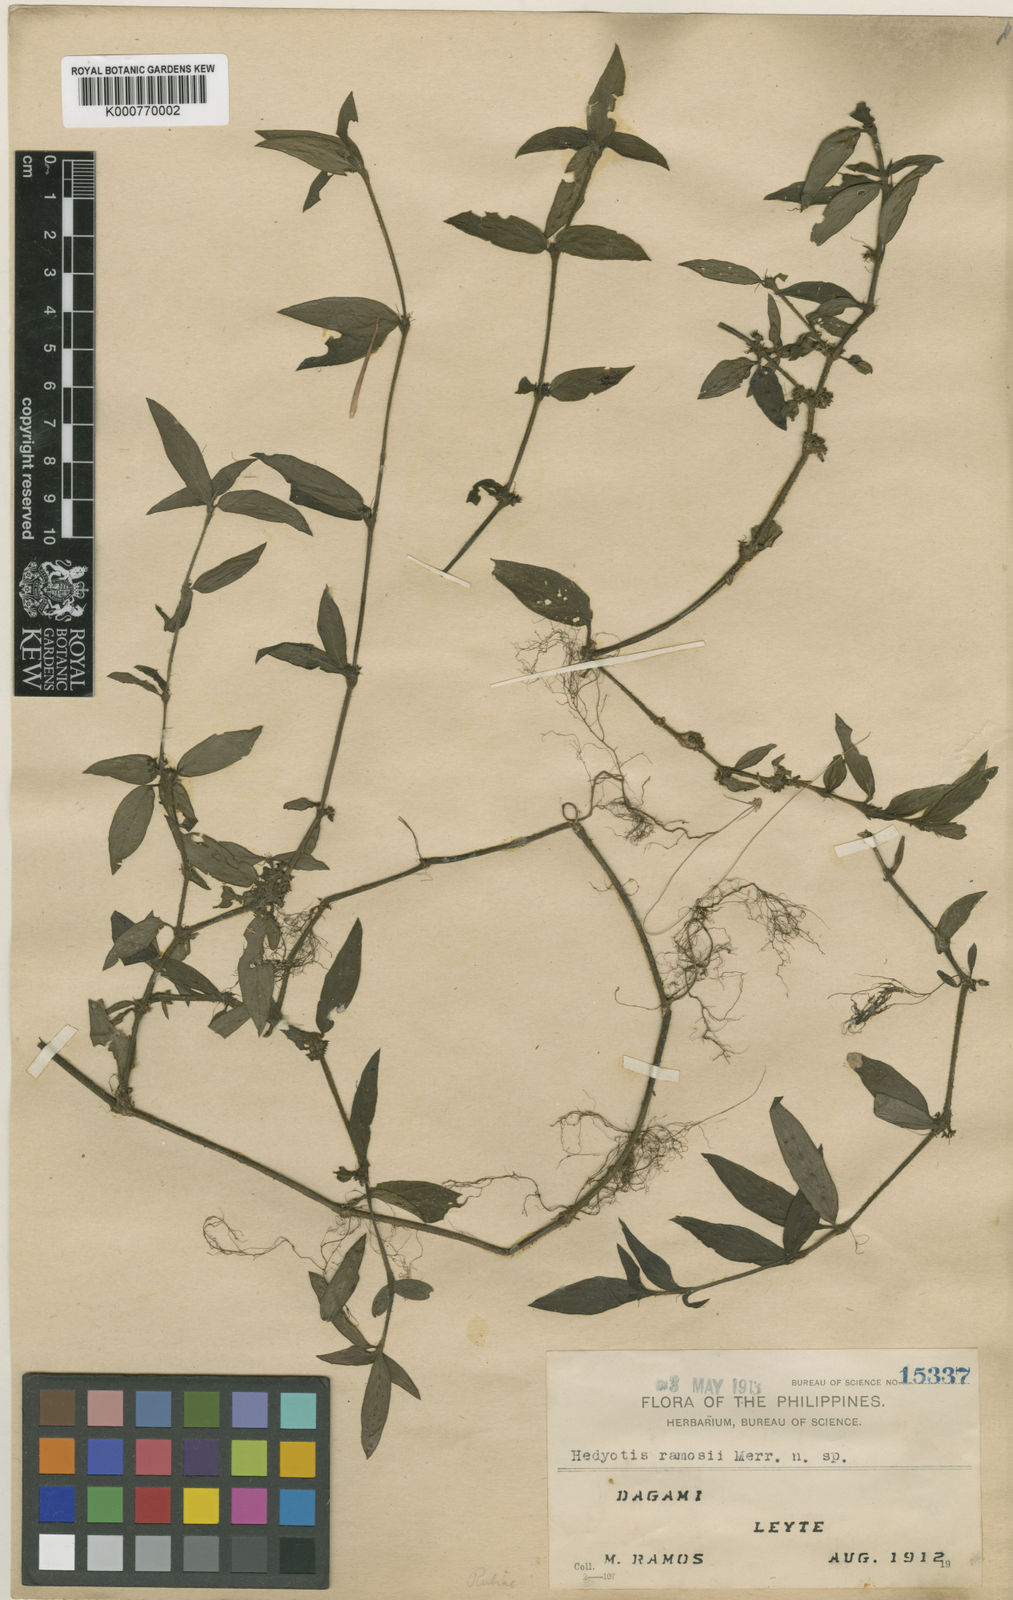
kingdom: Plantae
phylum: Tracheophyta
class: Magnoliopsida
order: Gentianales
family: Rubiaceae
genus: Exallage
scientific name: Exallage
